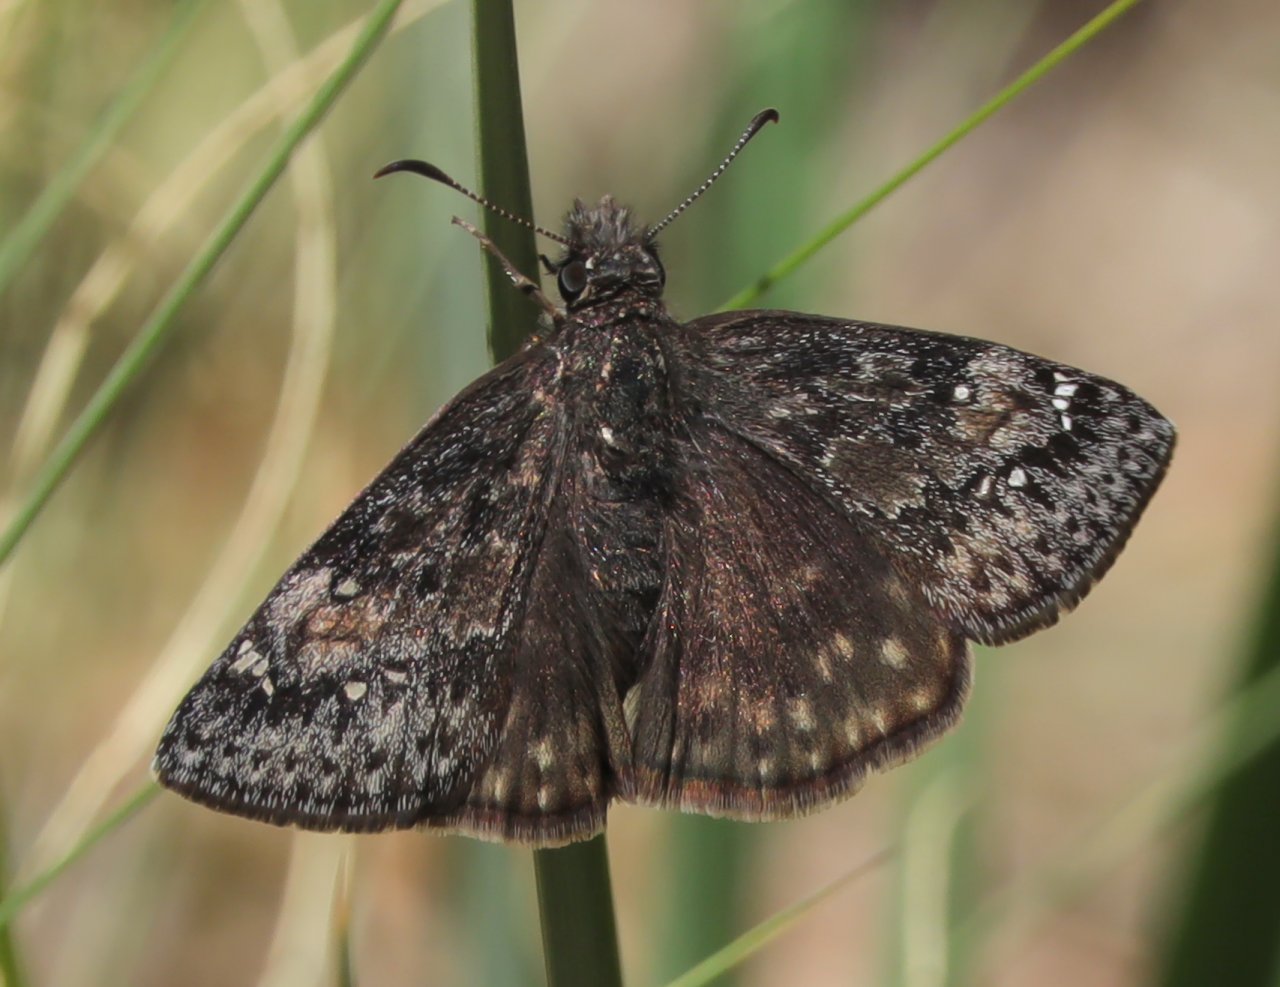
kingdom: Animalia
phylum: Arthropoda
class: Insecta
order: Lepidoptera
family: Hesperiidae
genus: Gesta
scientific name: Gesta
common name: Persius Duskywing
